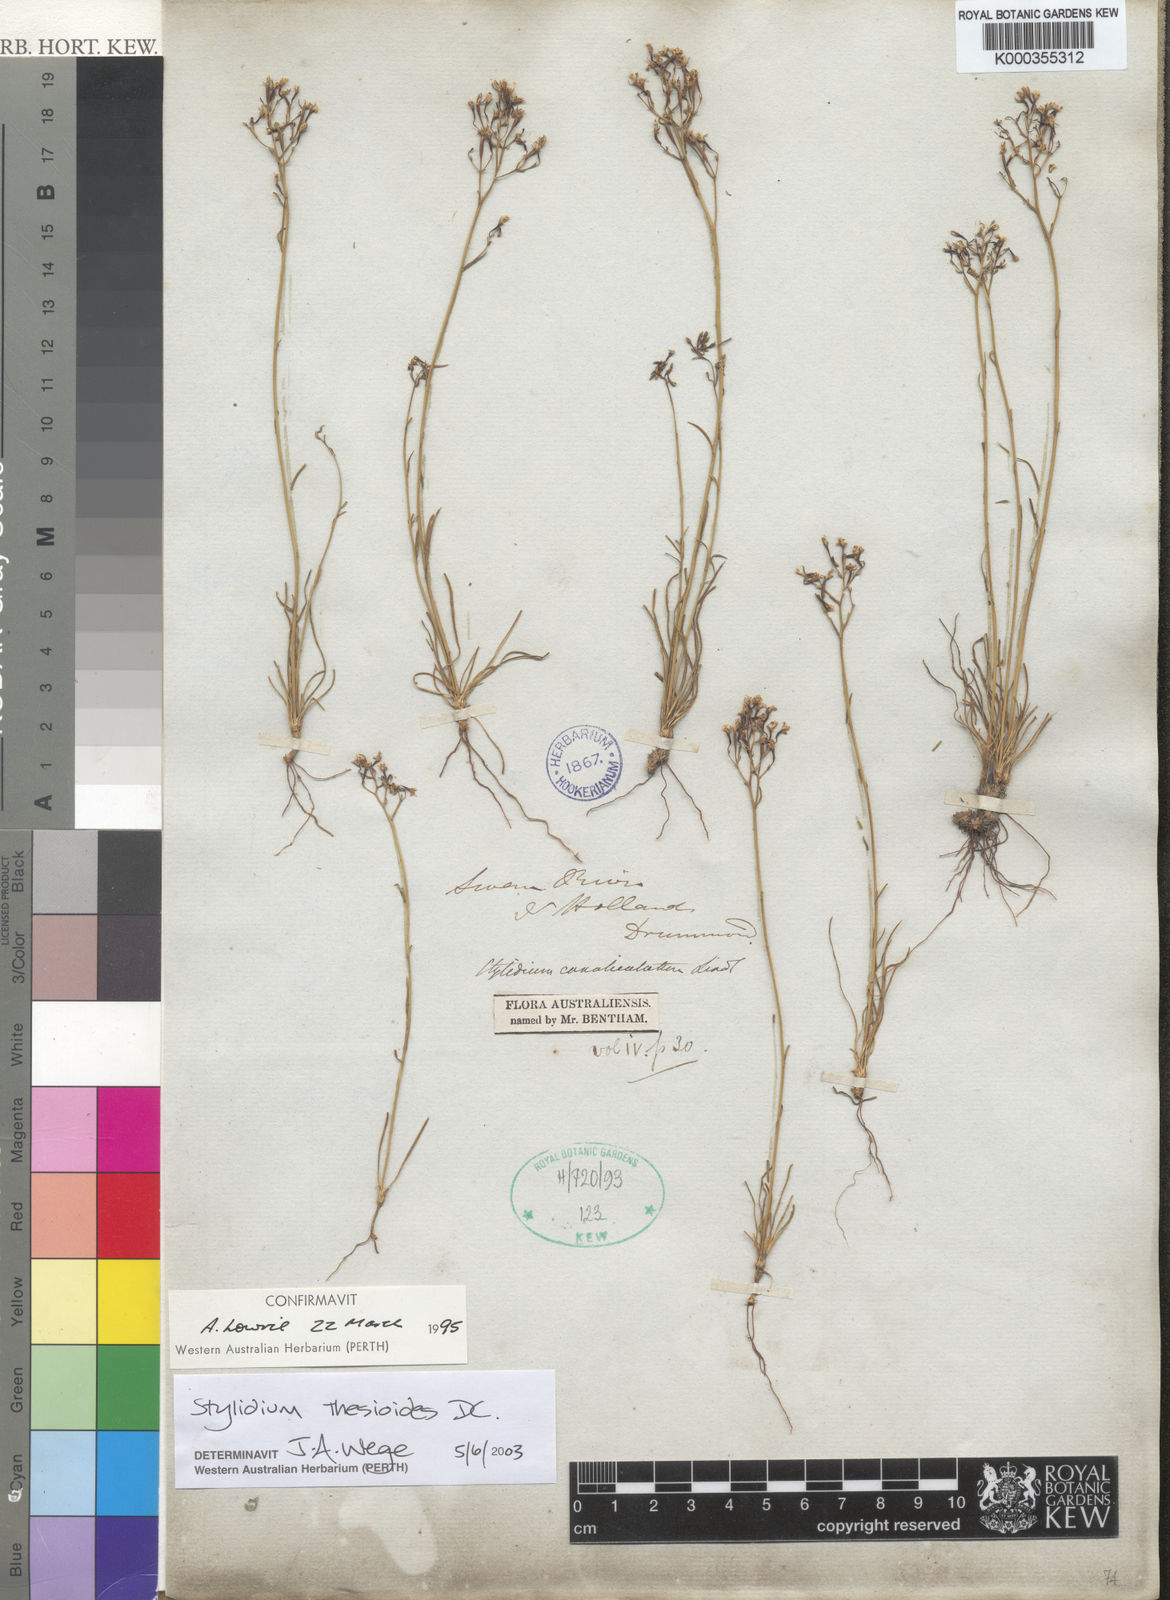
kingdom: Plantae
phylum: Tracheophyta
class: Magnoliopsida
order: Asterales
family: Stylidiaceae
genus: Stylidium
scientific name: Stylidium thesioides
